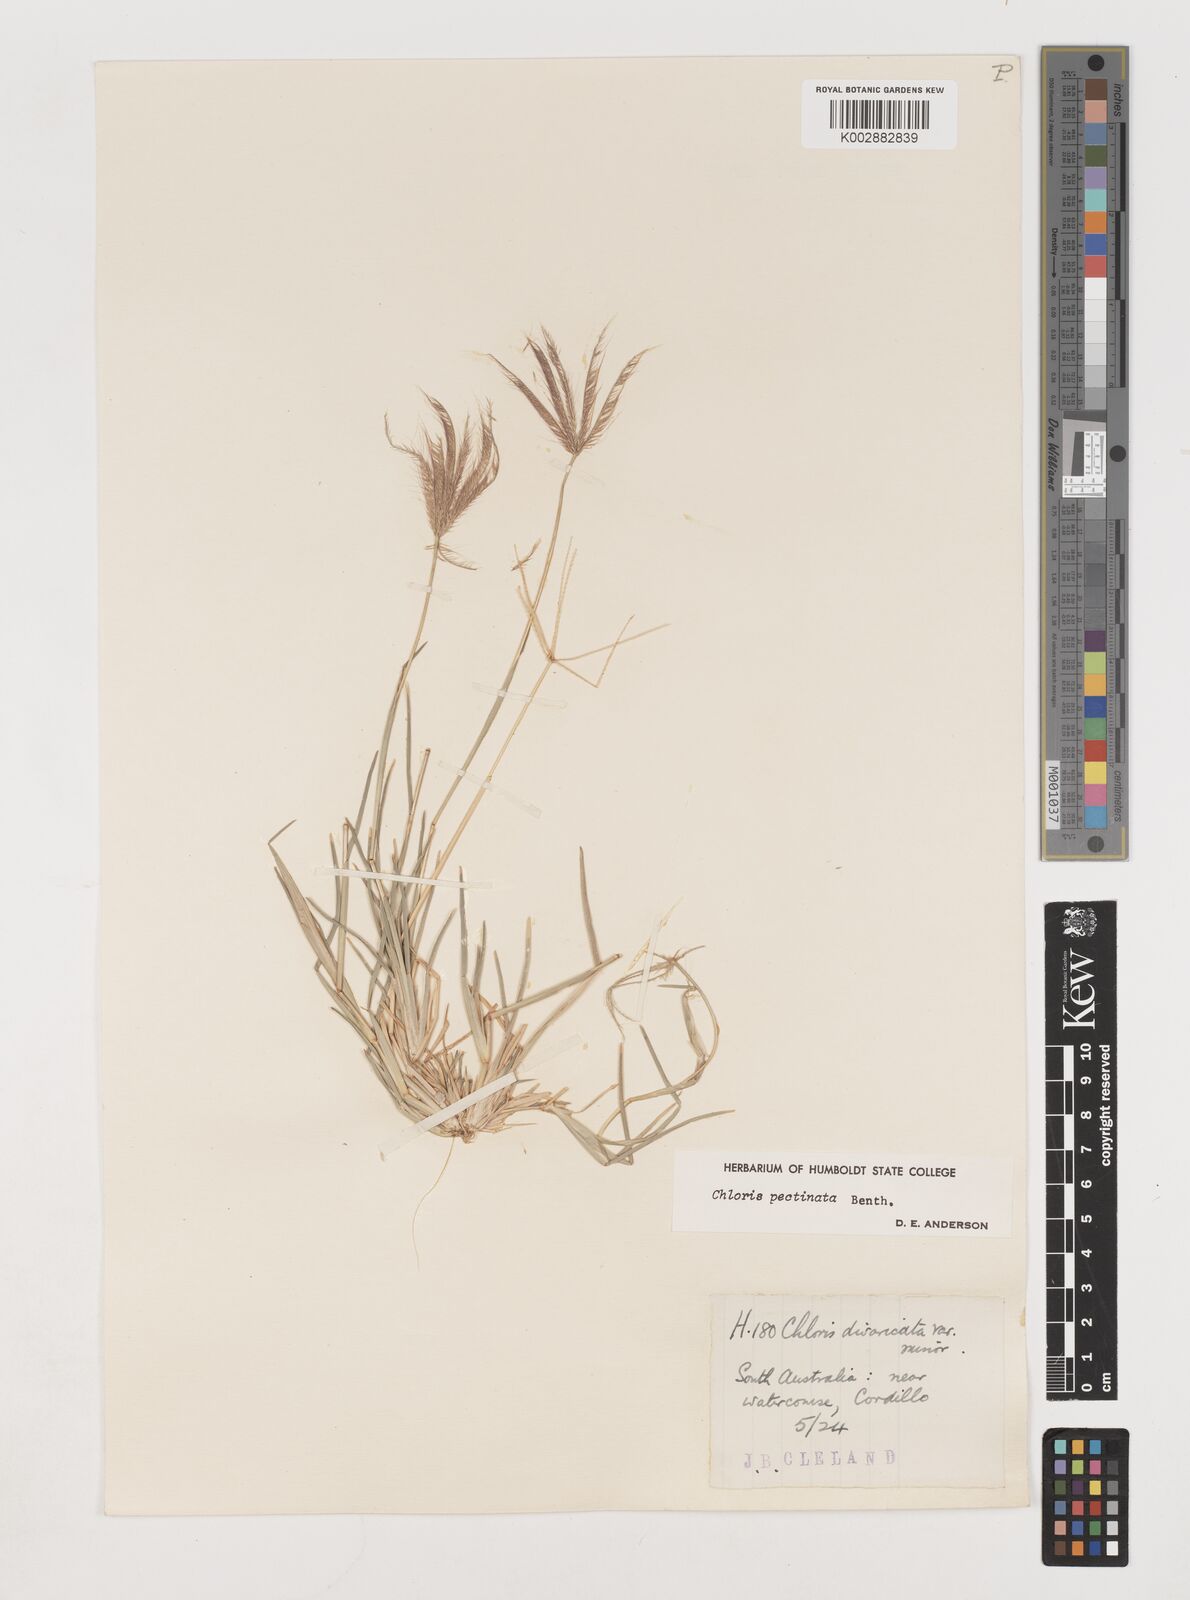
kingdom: Plantae
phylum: Tracheophyta
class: Liliopsida
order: Poales
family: Poaceae
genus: Chloris
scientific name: Chloris pectinata
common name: Comb windmill grass
